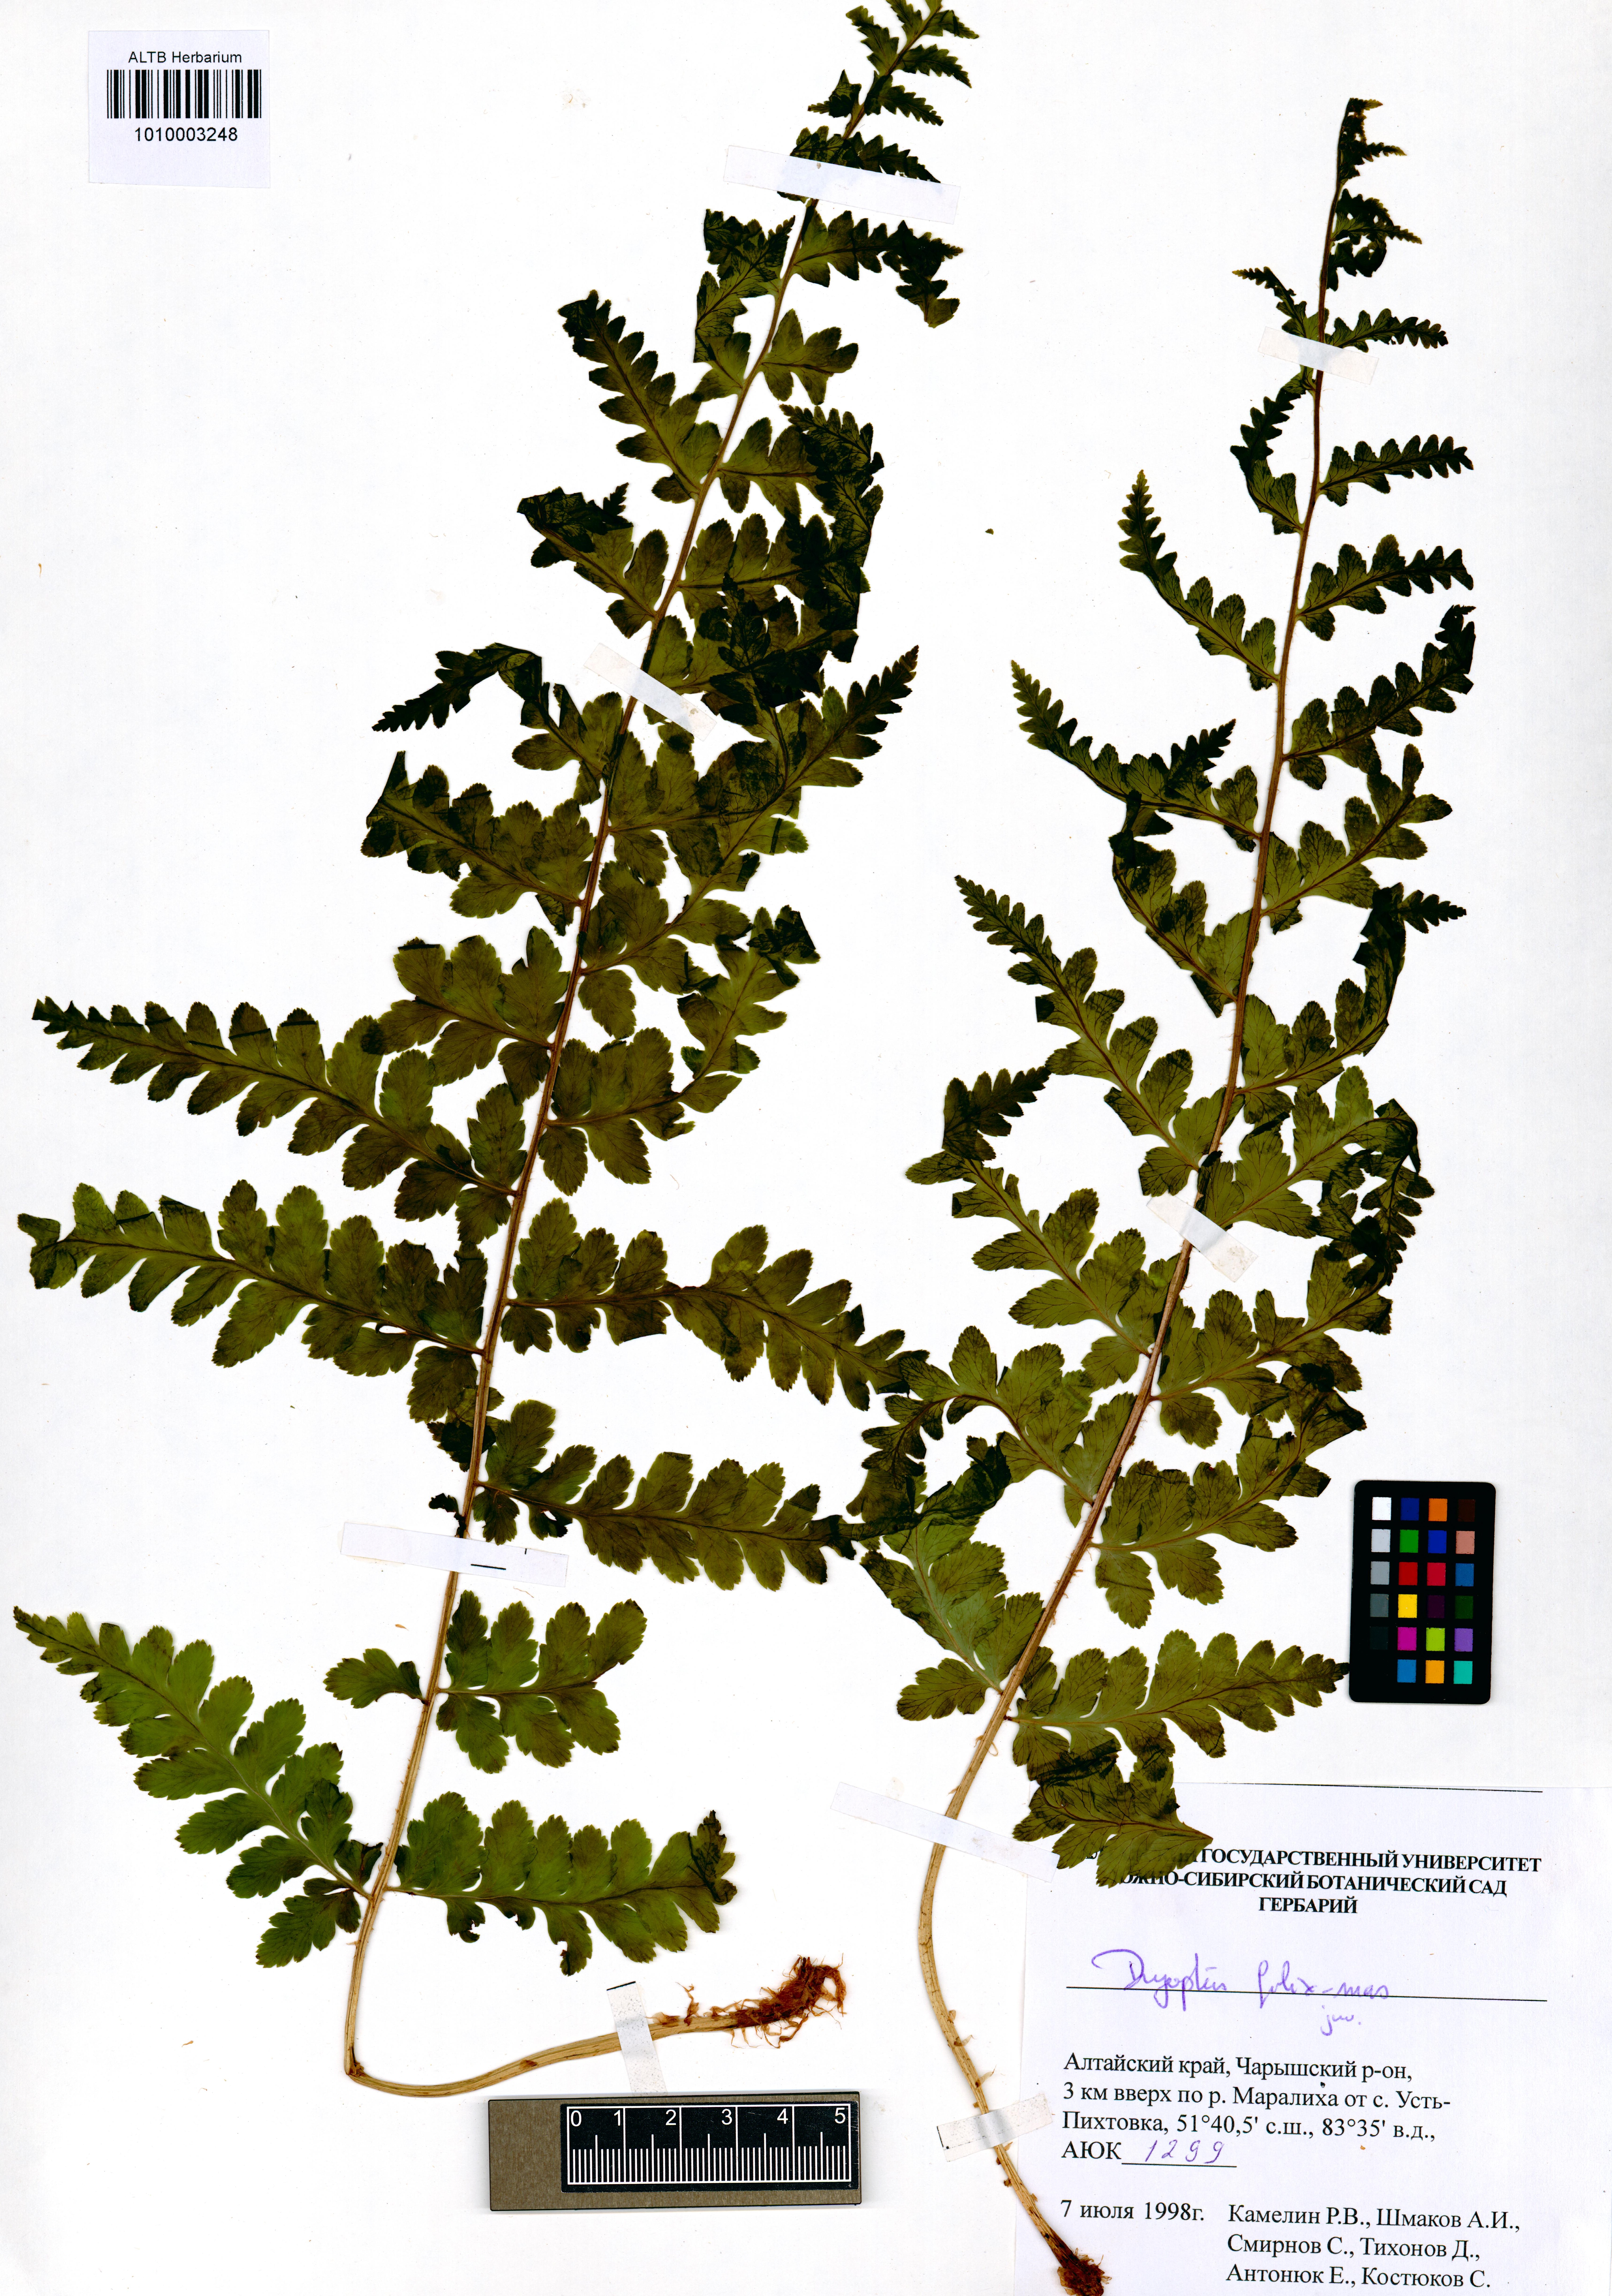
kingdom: Plantae
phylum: Tracheophyta
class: Polypodiopsida
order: Polypodiales
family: Dryopteridaceae
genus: Dryopteris
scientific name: Dryopteris filix-mas
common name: Male fern
